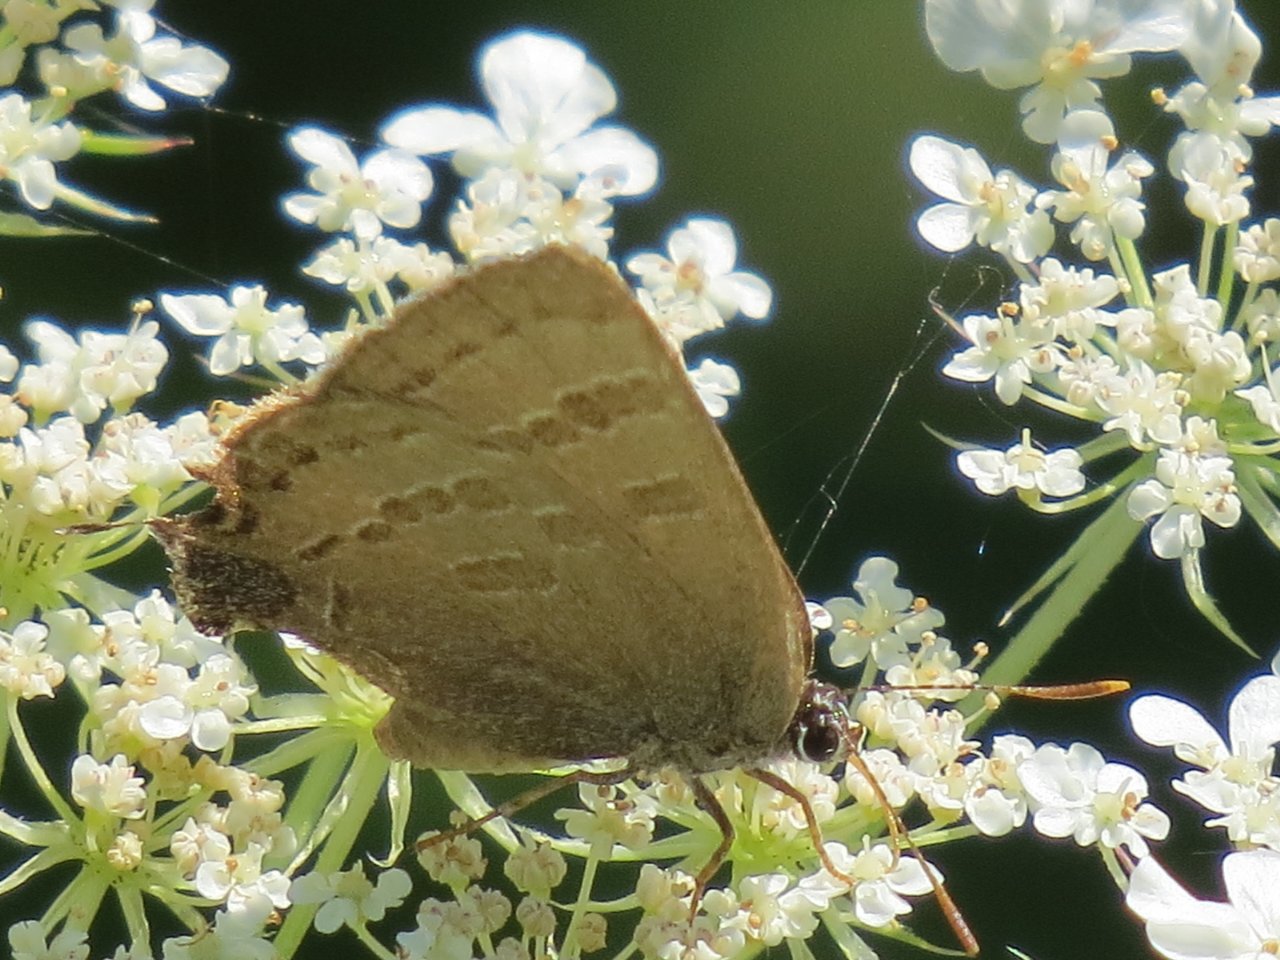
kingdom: Animalia
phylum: Arthropoda
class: Insecta
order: Lepidoptera
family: Lycaenidae
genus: Strymon
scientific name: Strymon caryaevorus
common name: Hickory Hairstreak
